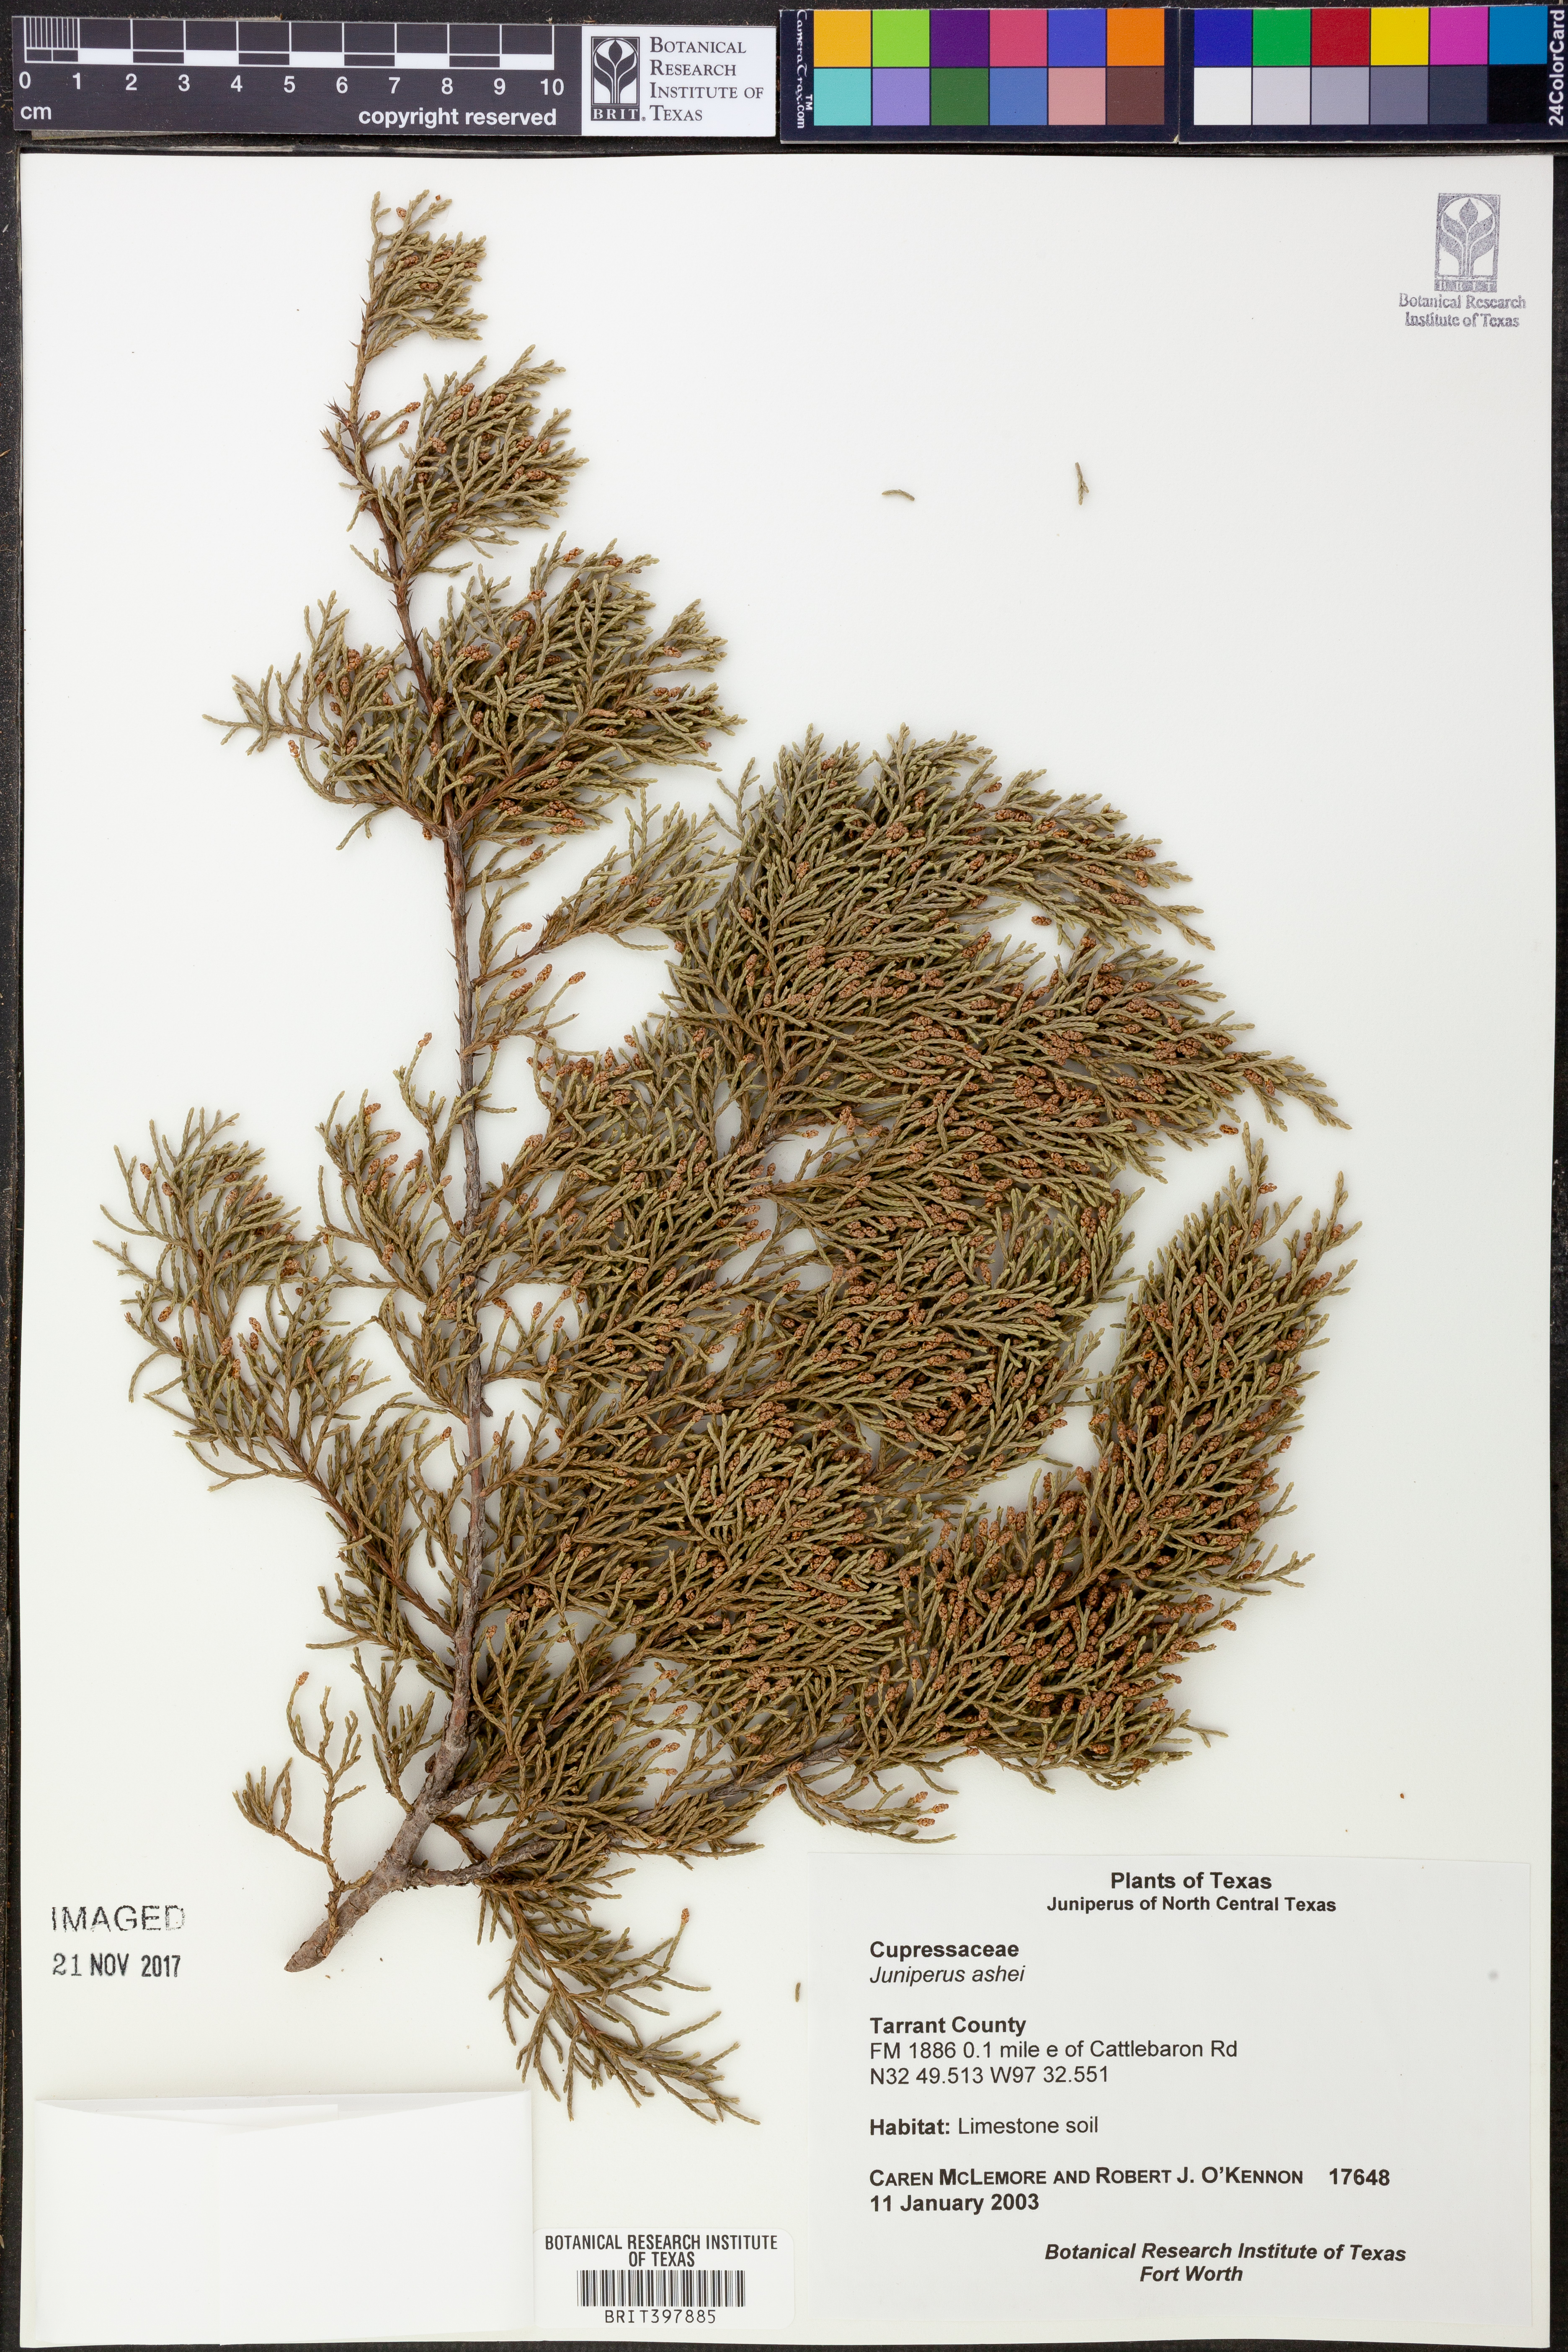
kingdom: Plantae
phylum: Tracheophyta
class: Pinopsida
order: Pinales
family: Cupressaceae
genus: Juniperus
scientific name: Juniperus ashei
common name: Mexican juniper
